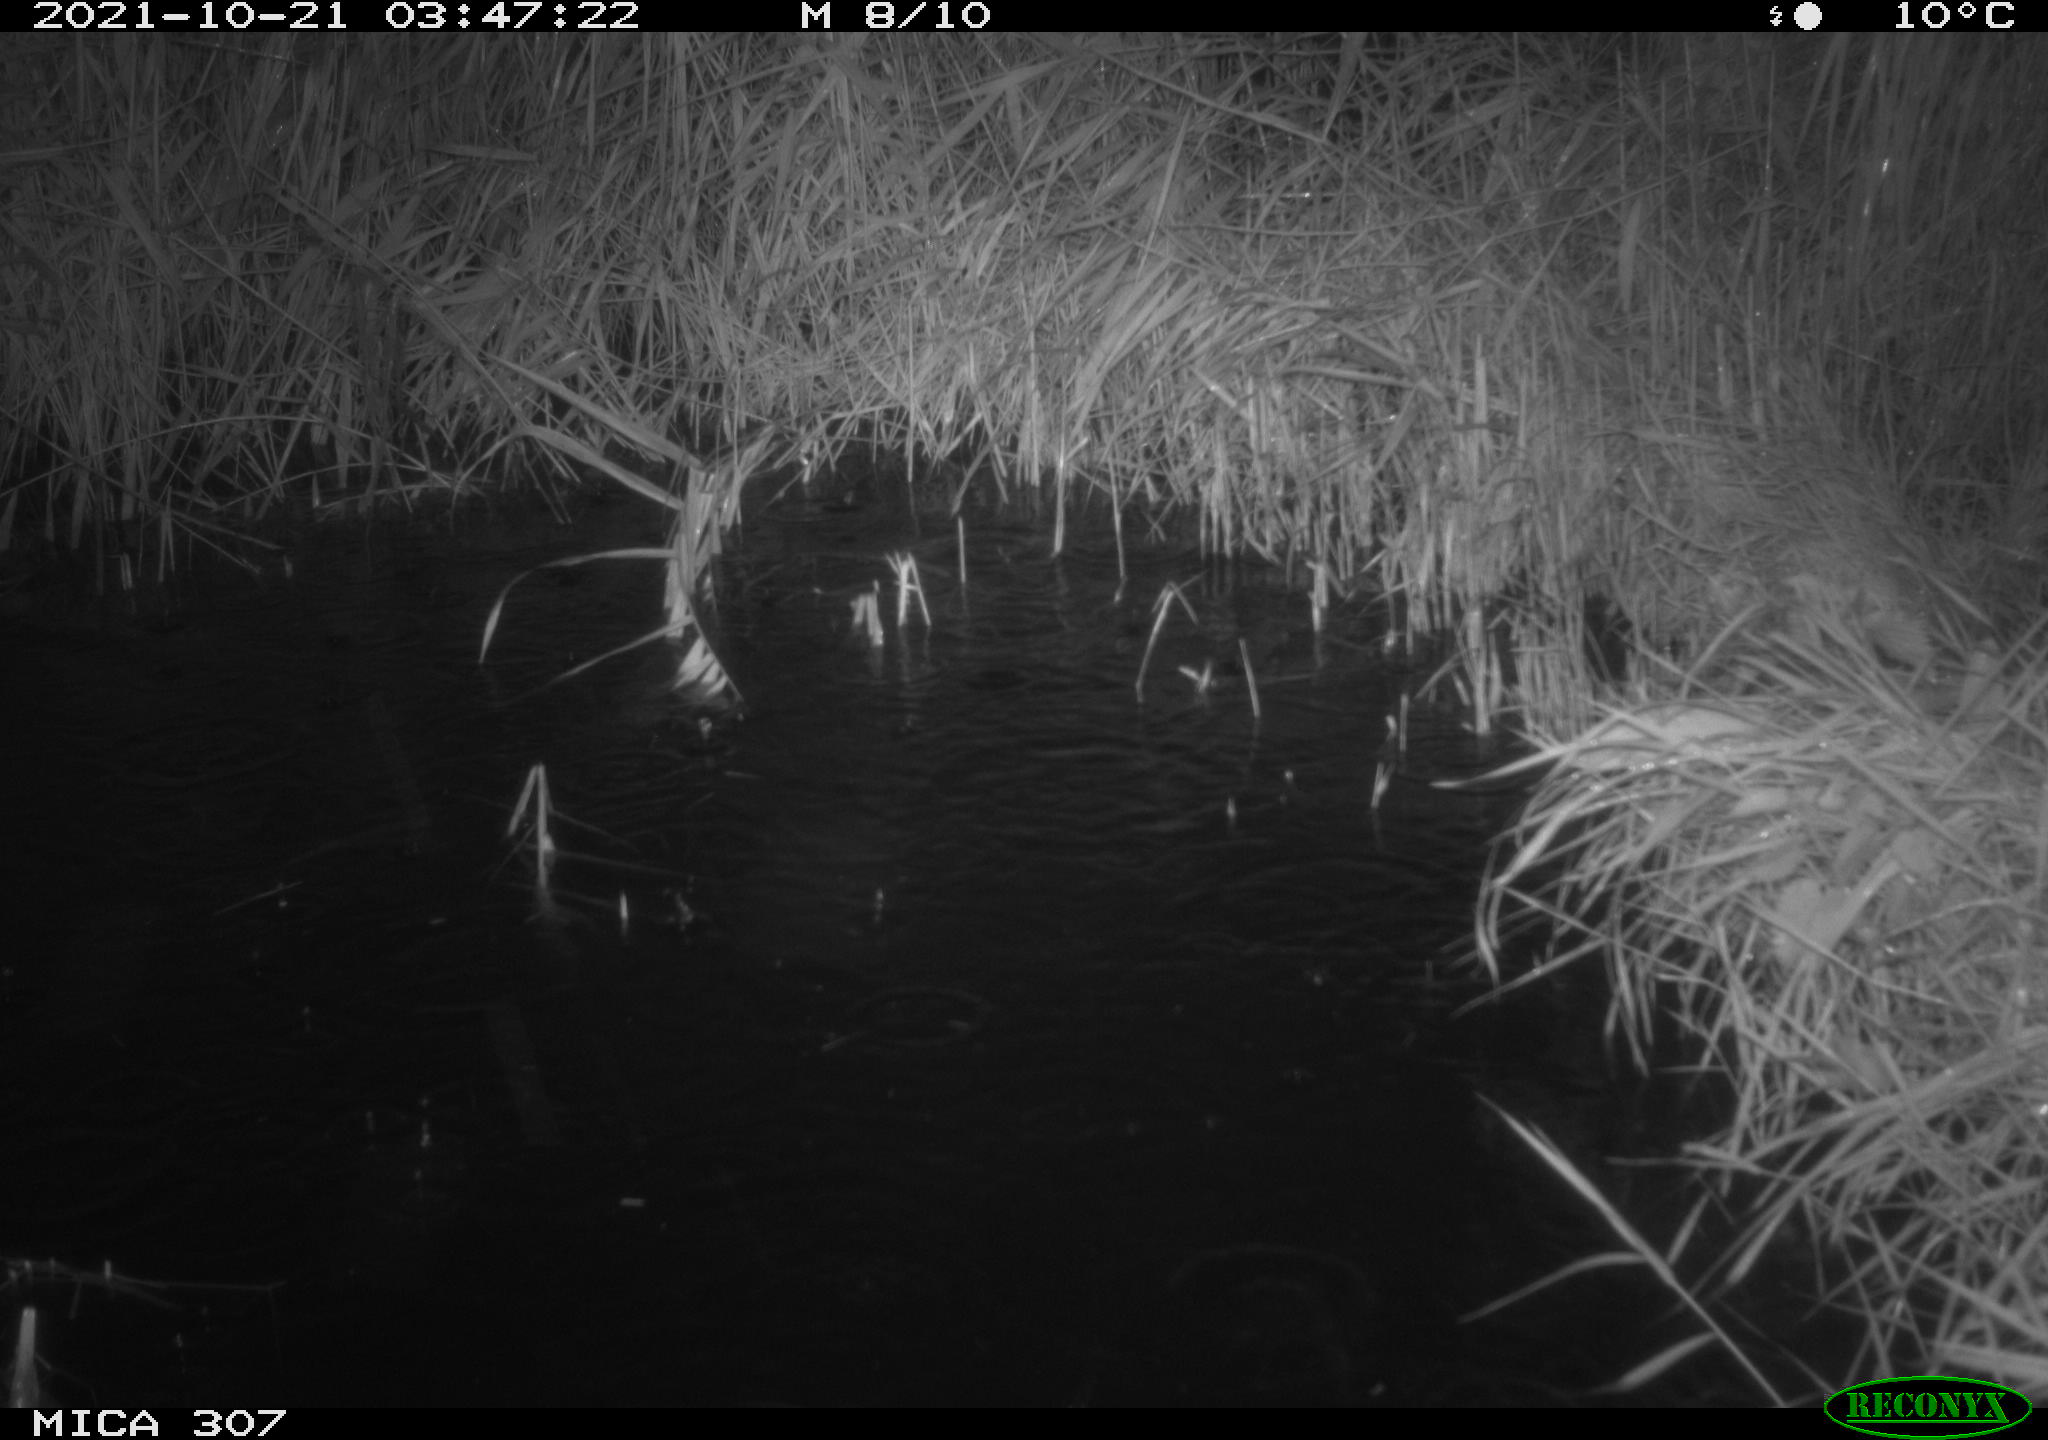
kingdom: Animalia
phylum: Chordata
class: Mammalia
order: Rodentia
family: Muridae
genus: Rattus
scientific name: Rattus norvegicus
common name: Brown rat
